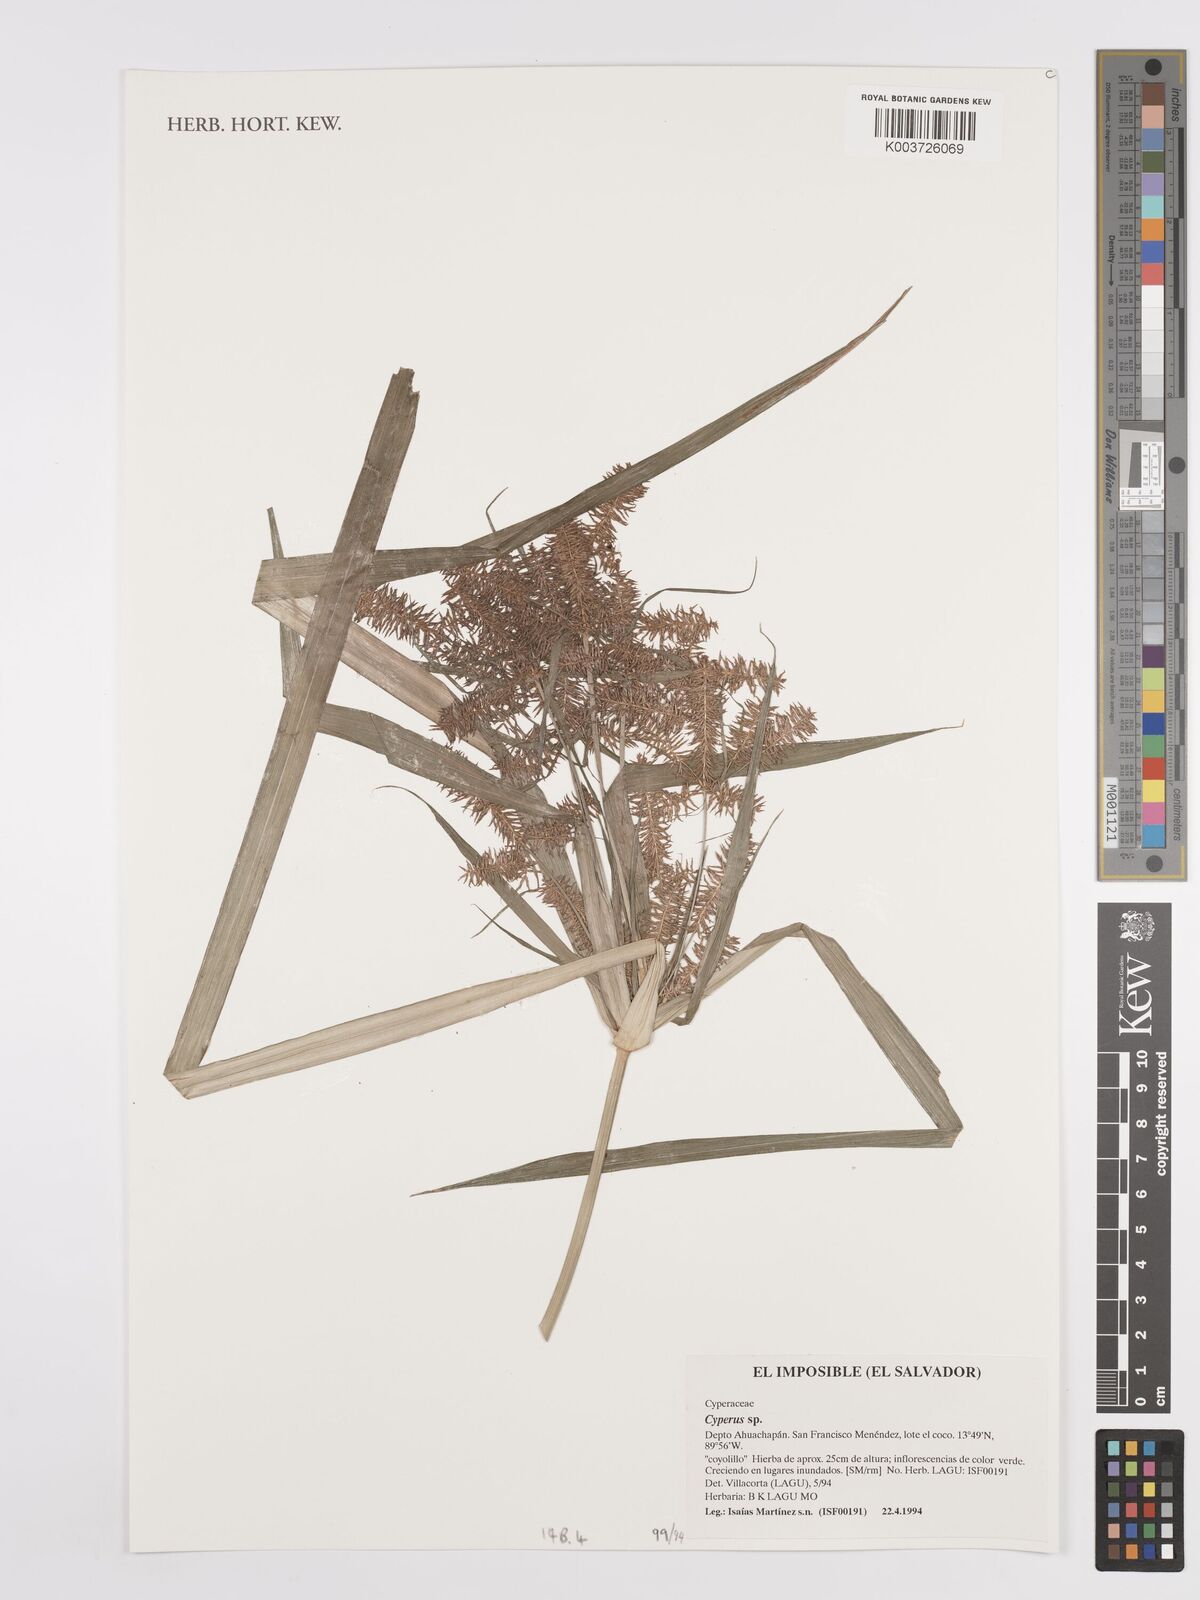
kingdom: Plantae
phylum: Tracheophyta
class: Liliopsida
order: Poales
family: Cyperaceae
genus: Cyperus
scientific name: Cyperus
